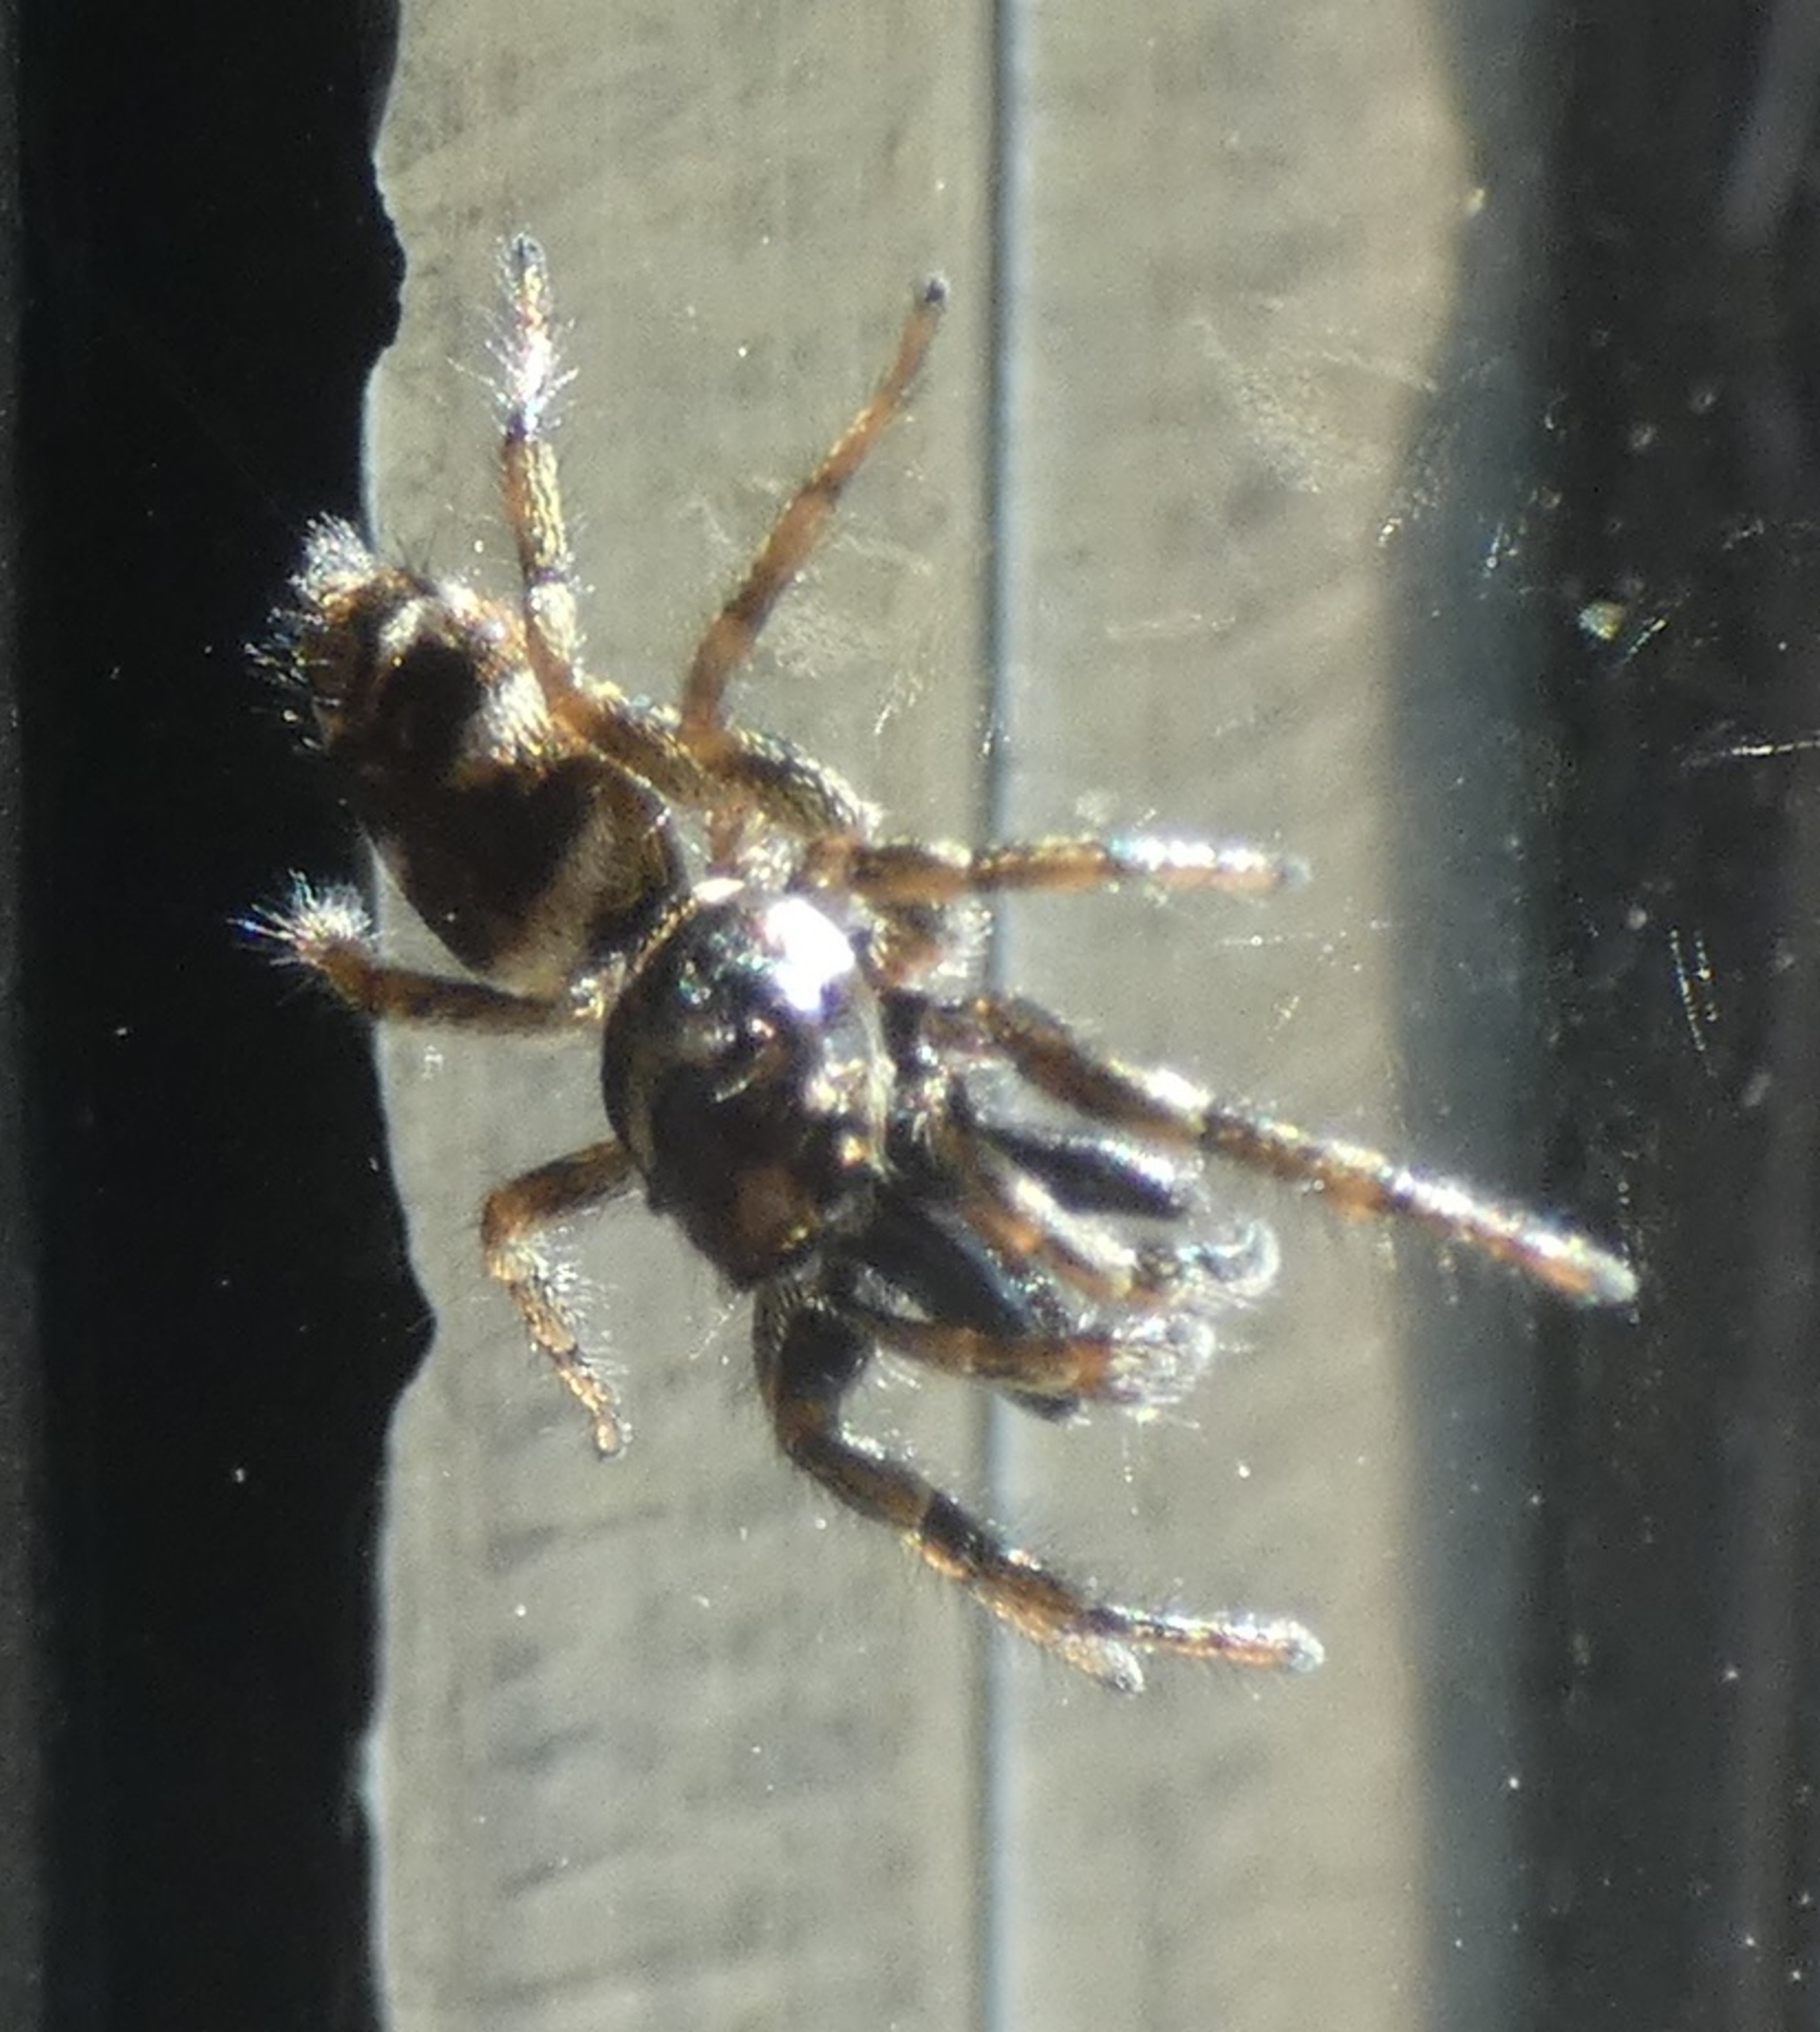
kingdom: Animalia
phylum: Arthropoda
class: Arachnida
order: Araneae
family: Salticidae
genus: Salticus
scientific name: Salticus scenicus
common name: Almindelig zebraedderkop
